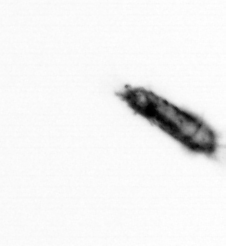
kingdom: Animalia
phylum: Arthropoda
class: Copepoda
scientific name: Copepoda
